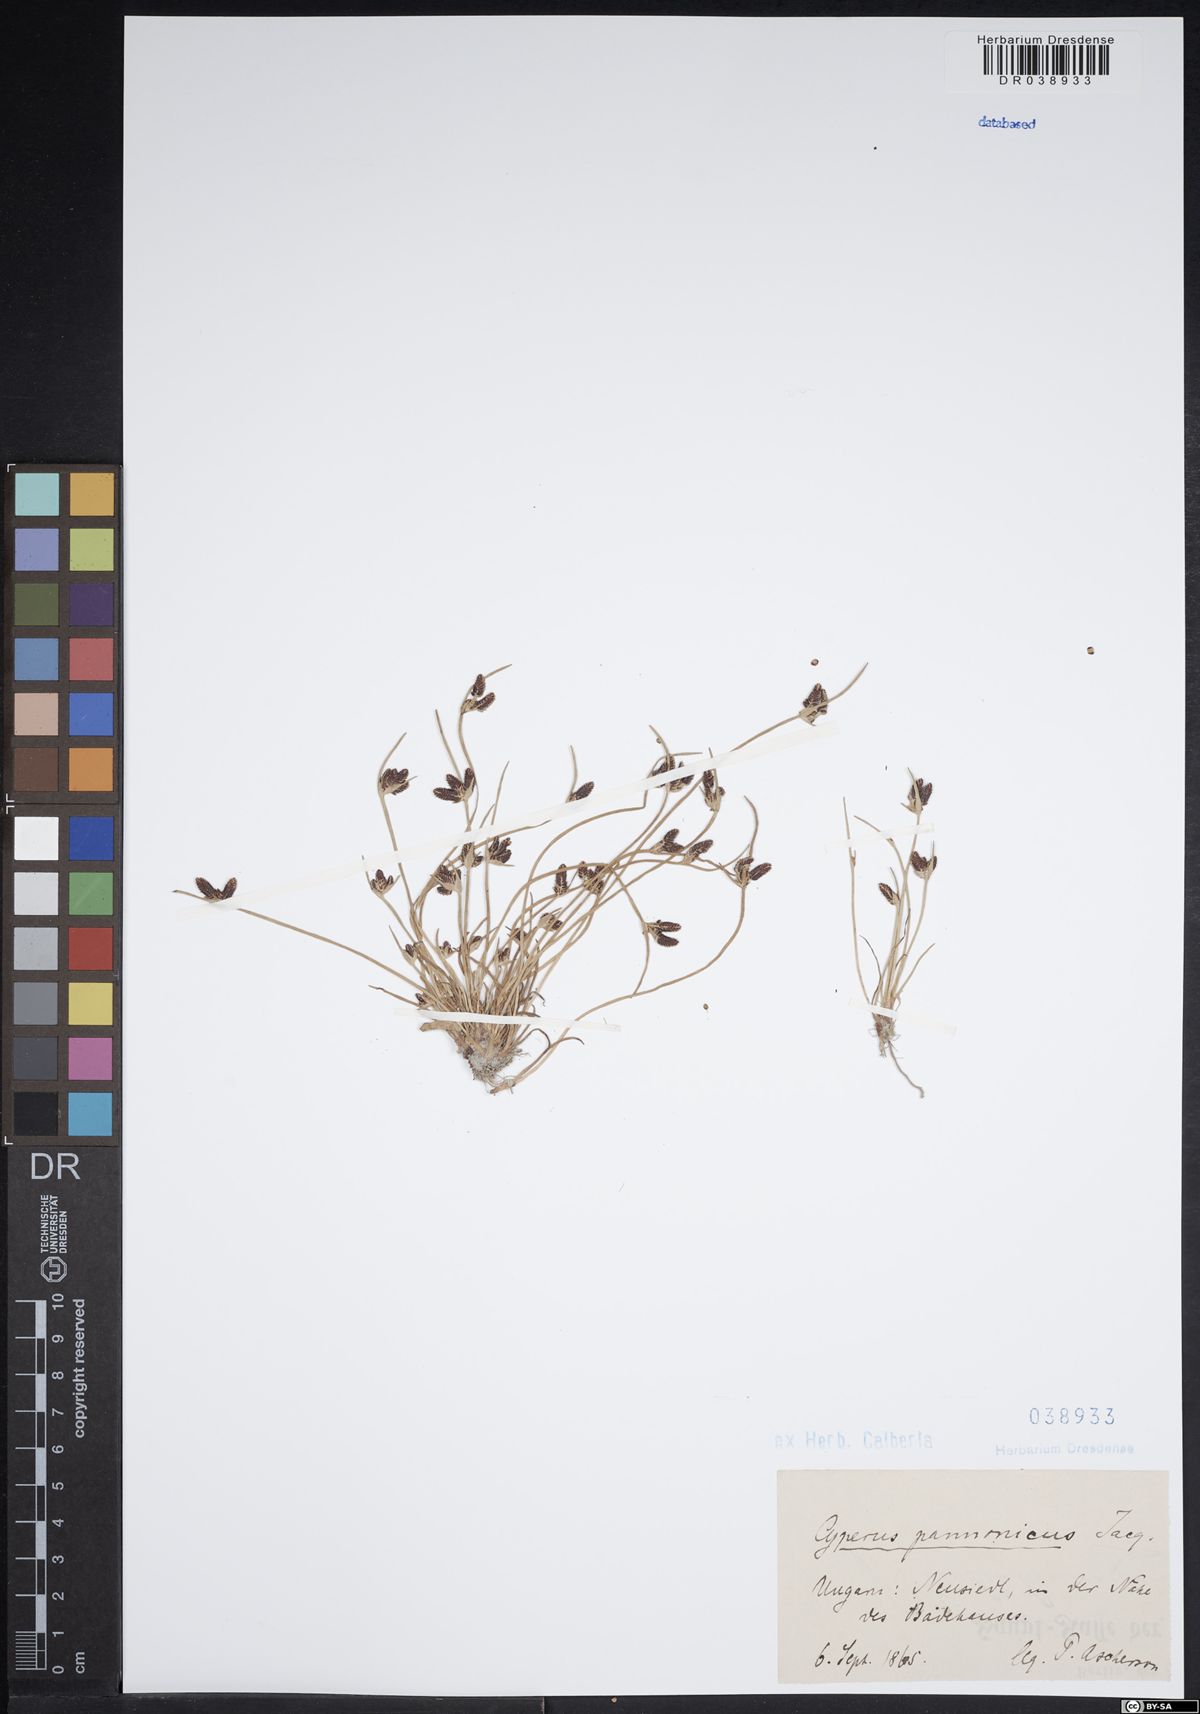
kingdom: Plantae
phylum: Tracheophyta
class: Liliopsida
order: Poales
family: Cyperaceae
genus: Cyperus
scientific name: Cyperus pannonicus
